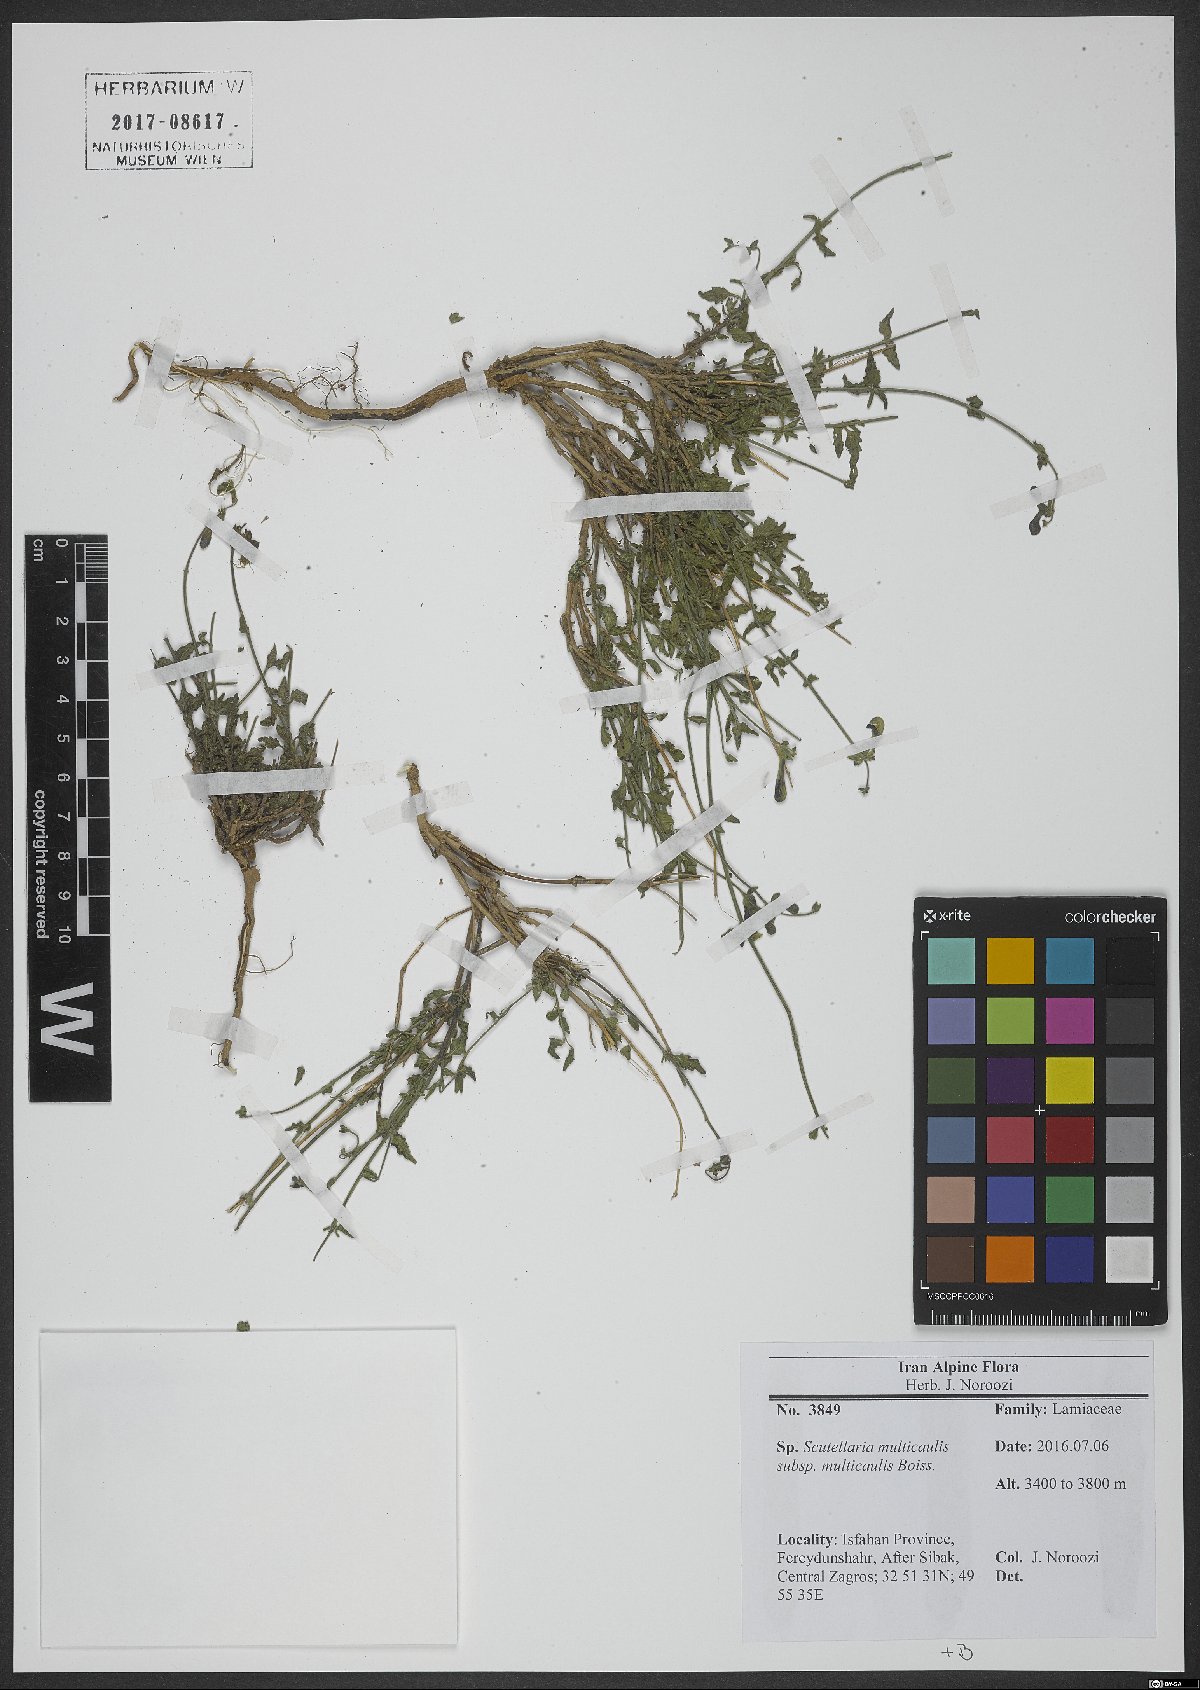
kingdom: Plantae
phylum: Tracheophyta
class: Magnoliopsida
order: Lamiales
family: Lamiaceae
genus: Scutellaria
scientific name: Scutellaria multicaulis
